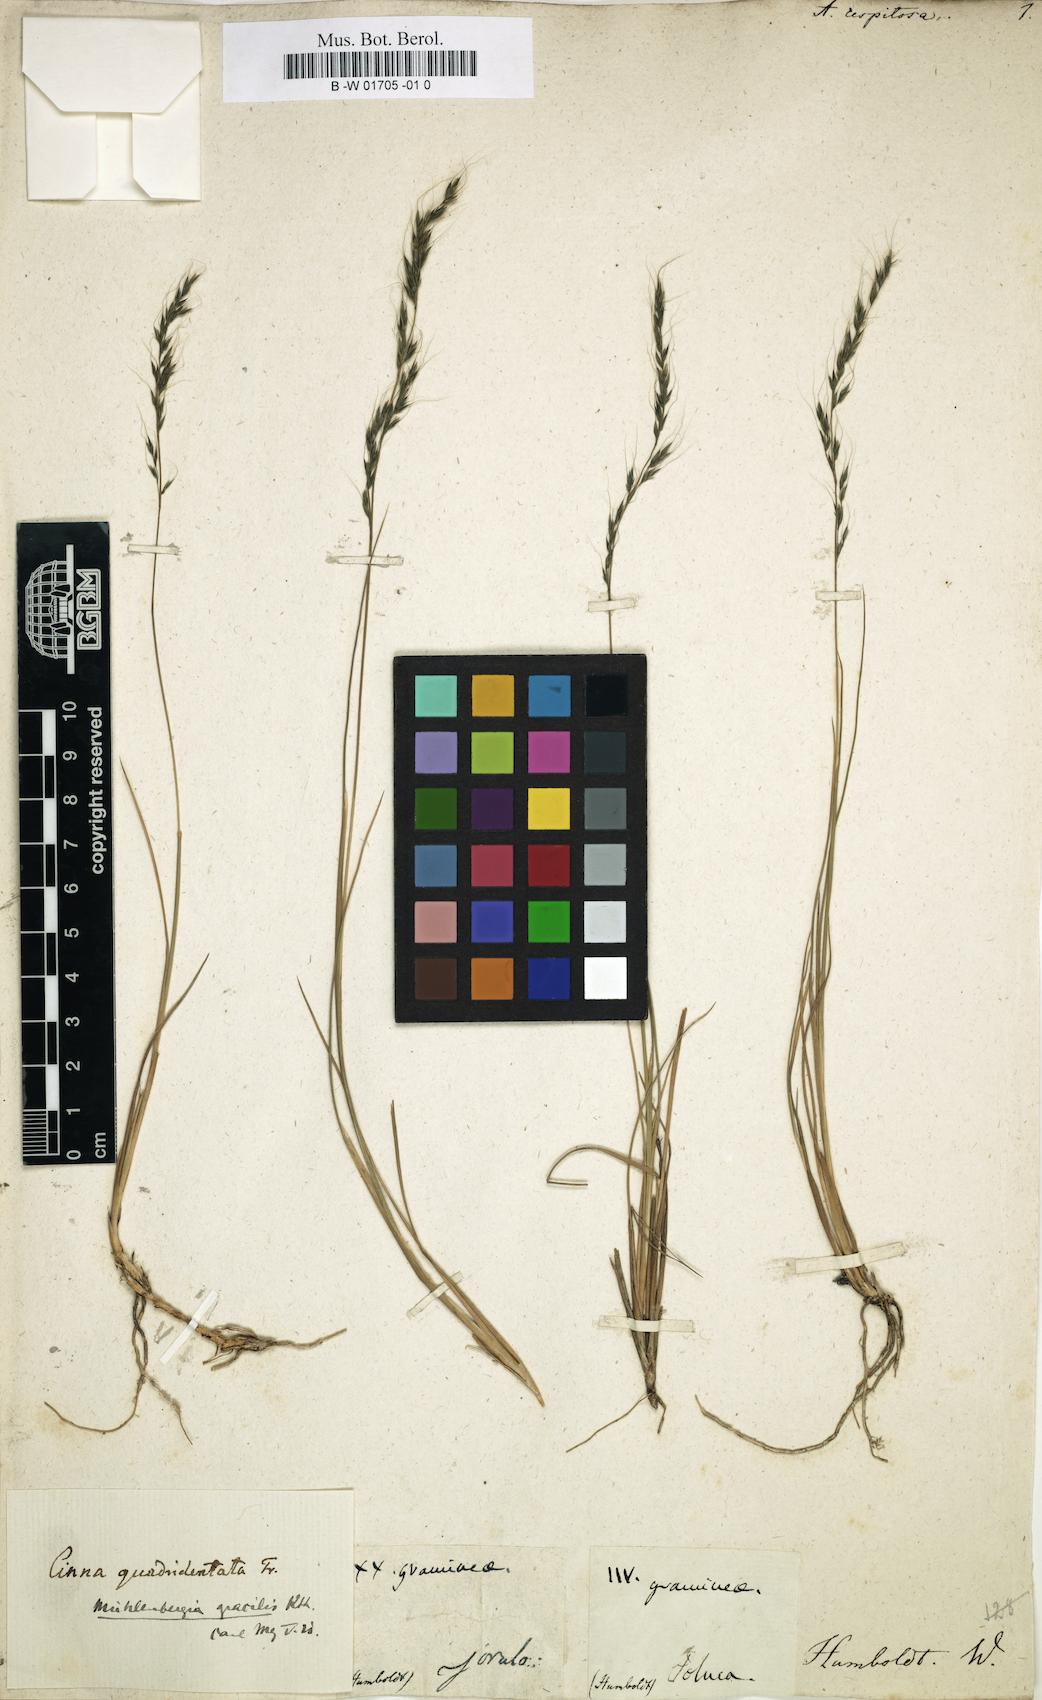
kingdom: Plantae
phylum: Tracheophyta
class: Liliopsida
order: Poales
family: Poaceae
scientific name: Poaceae
